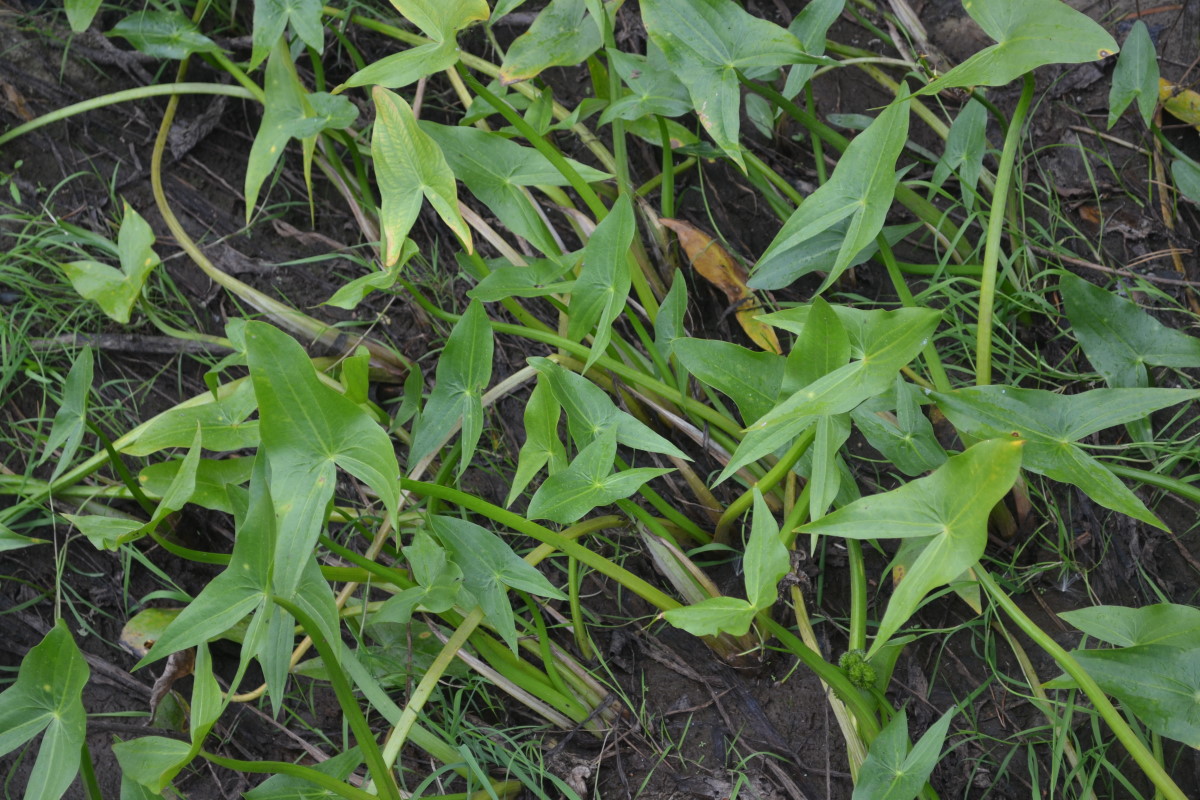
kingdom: Plantae
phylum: Tracheophyta
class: Liliopsida
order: Alismatales
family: Alismataceae
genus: Sagittaria
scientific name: Sagittaria sagittifolia
